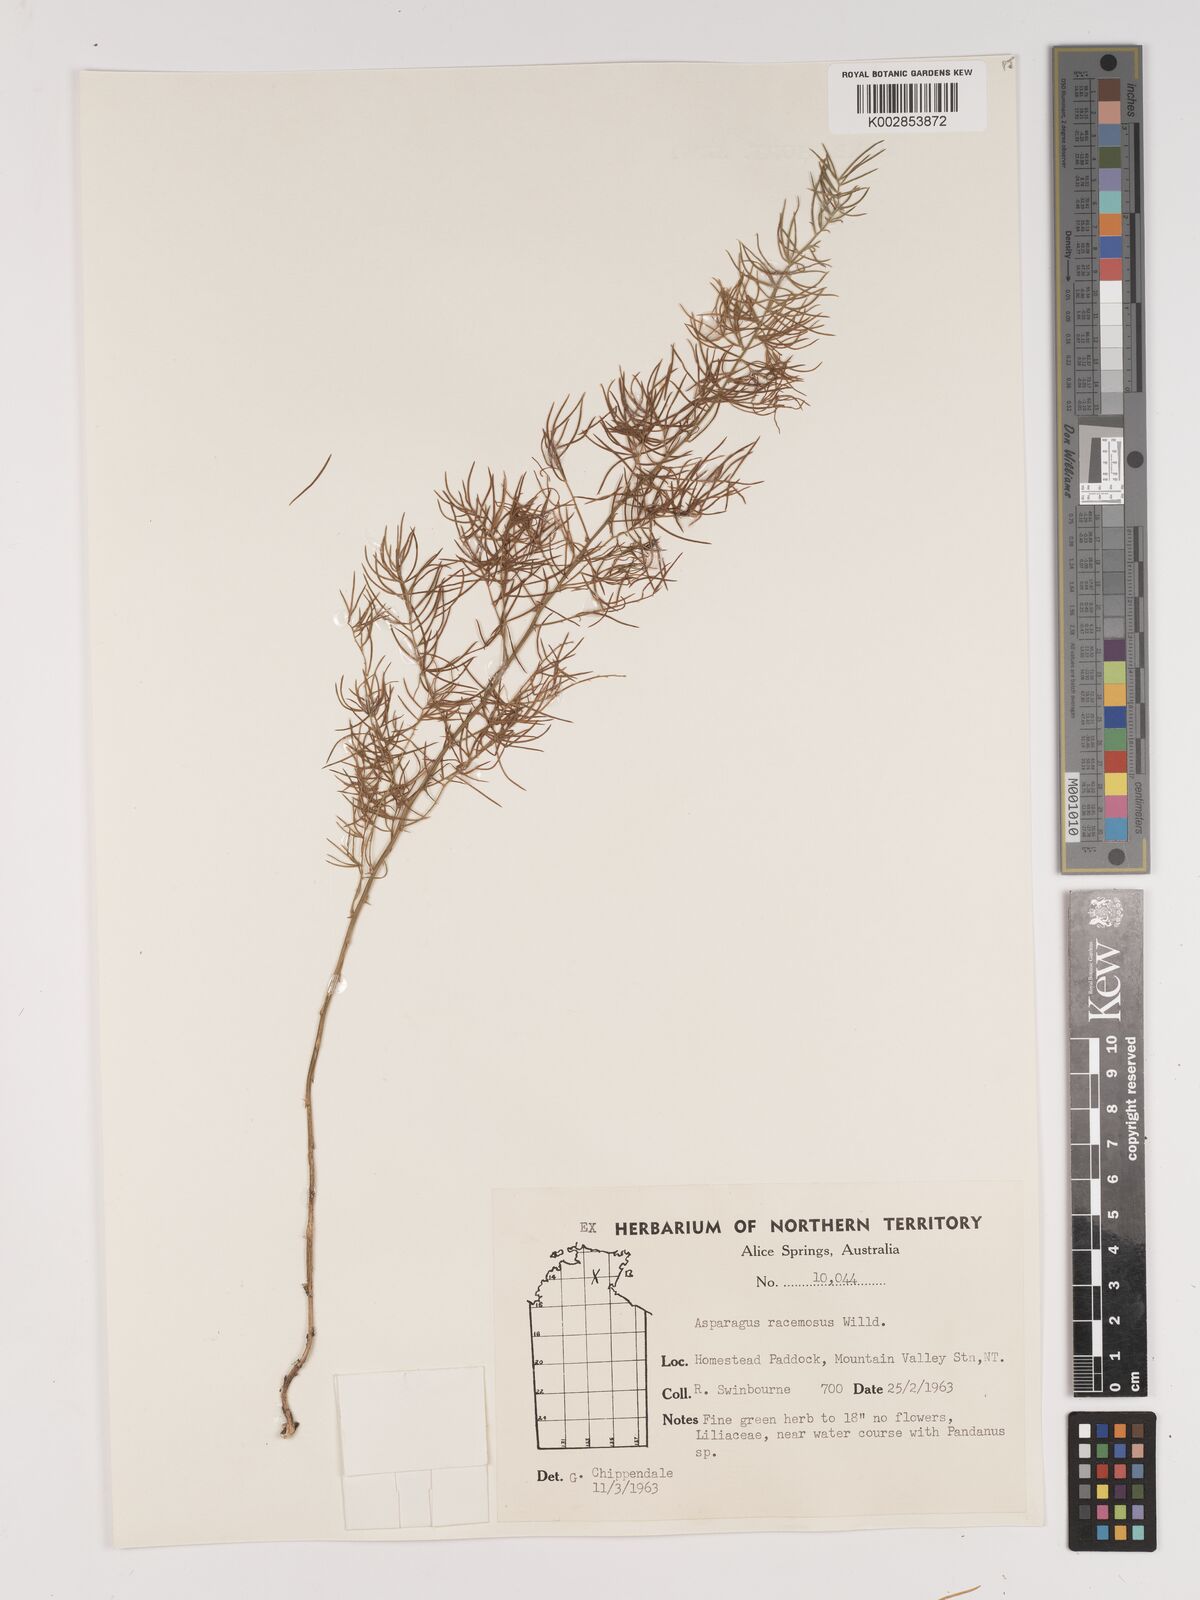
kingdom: Plantae
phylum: Tracheophyta
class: Liliopsida
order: Asparagales
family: Asparagaceae
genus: Asparagus
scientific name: Asparagus racemosus
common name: Asparagus-fern
